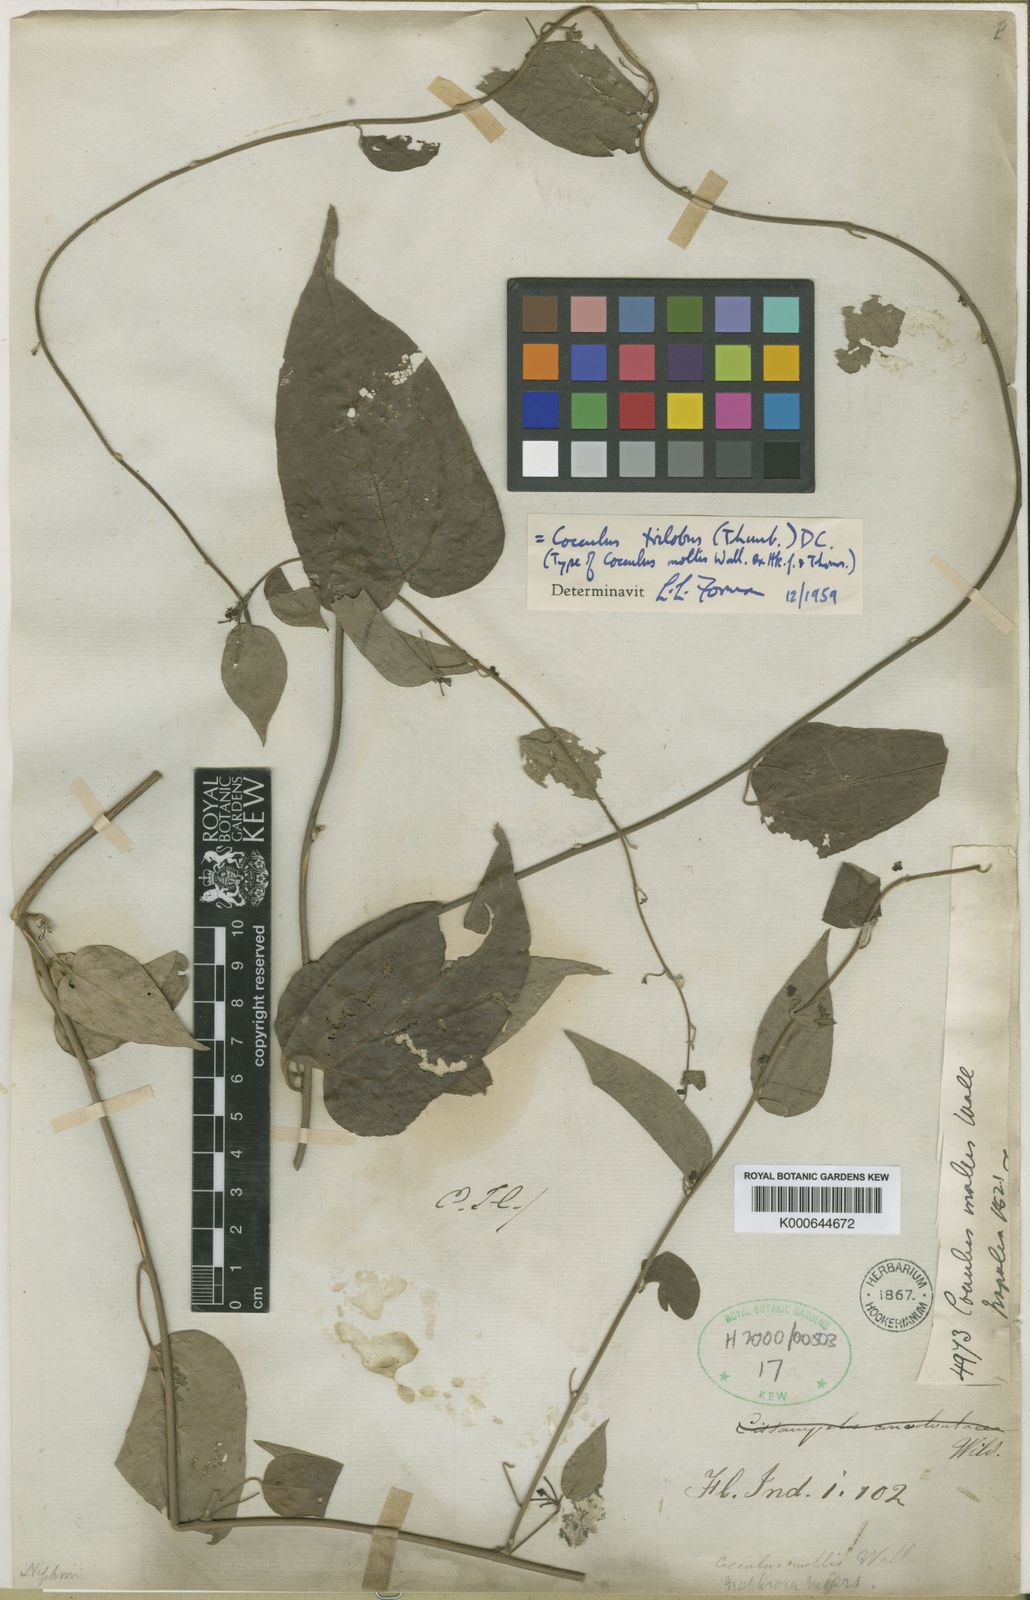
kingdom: Plantae
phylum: Tracheophyta
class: Magnoliopsida
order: Ranunculales
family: Menispermaceae
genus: Cocculus
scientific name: Cocculus orbiculatus
